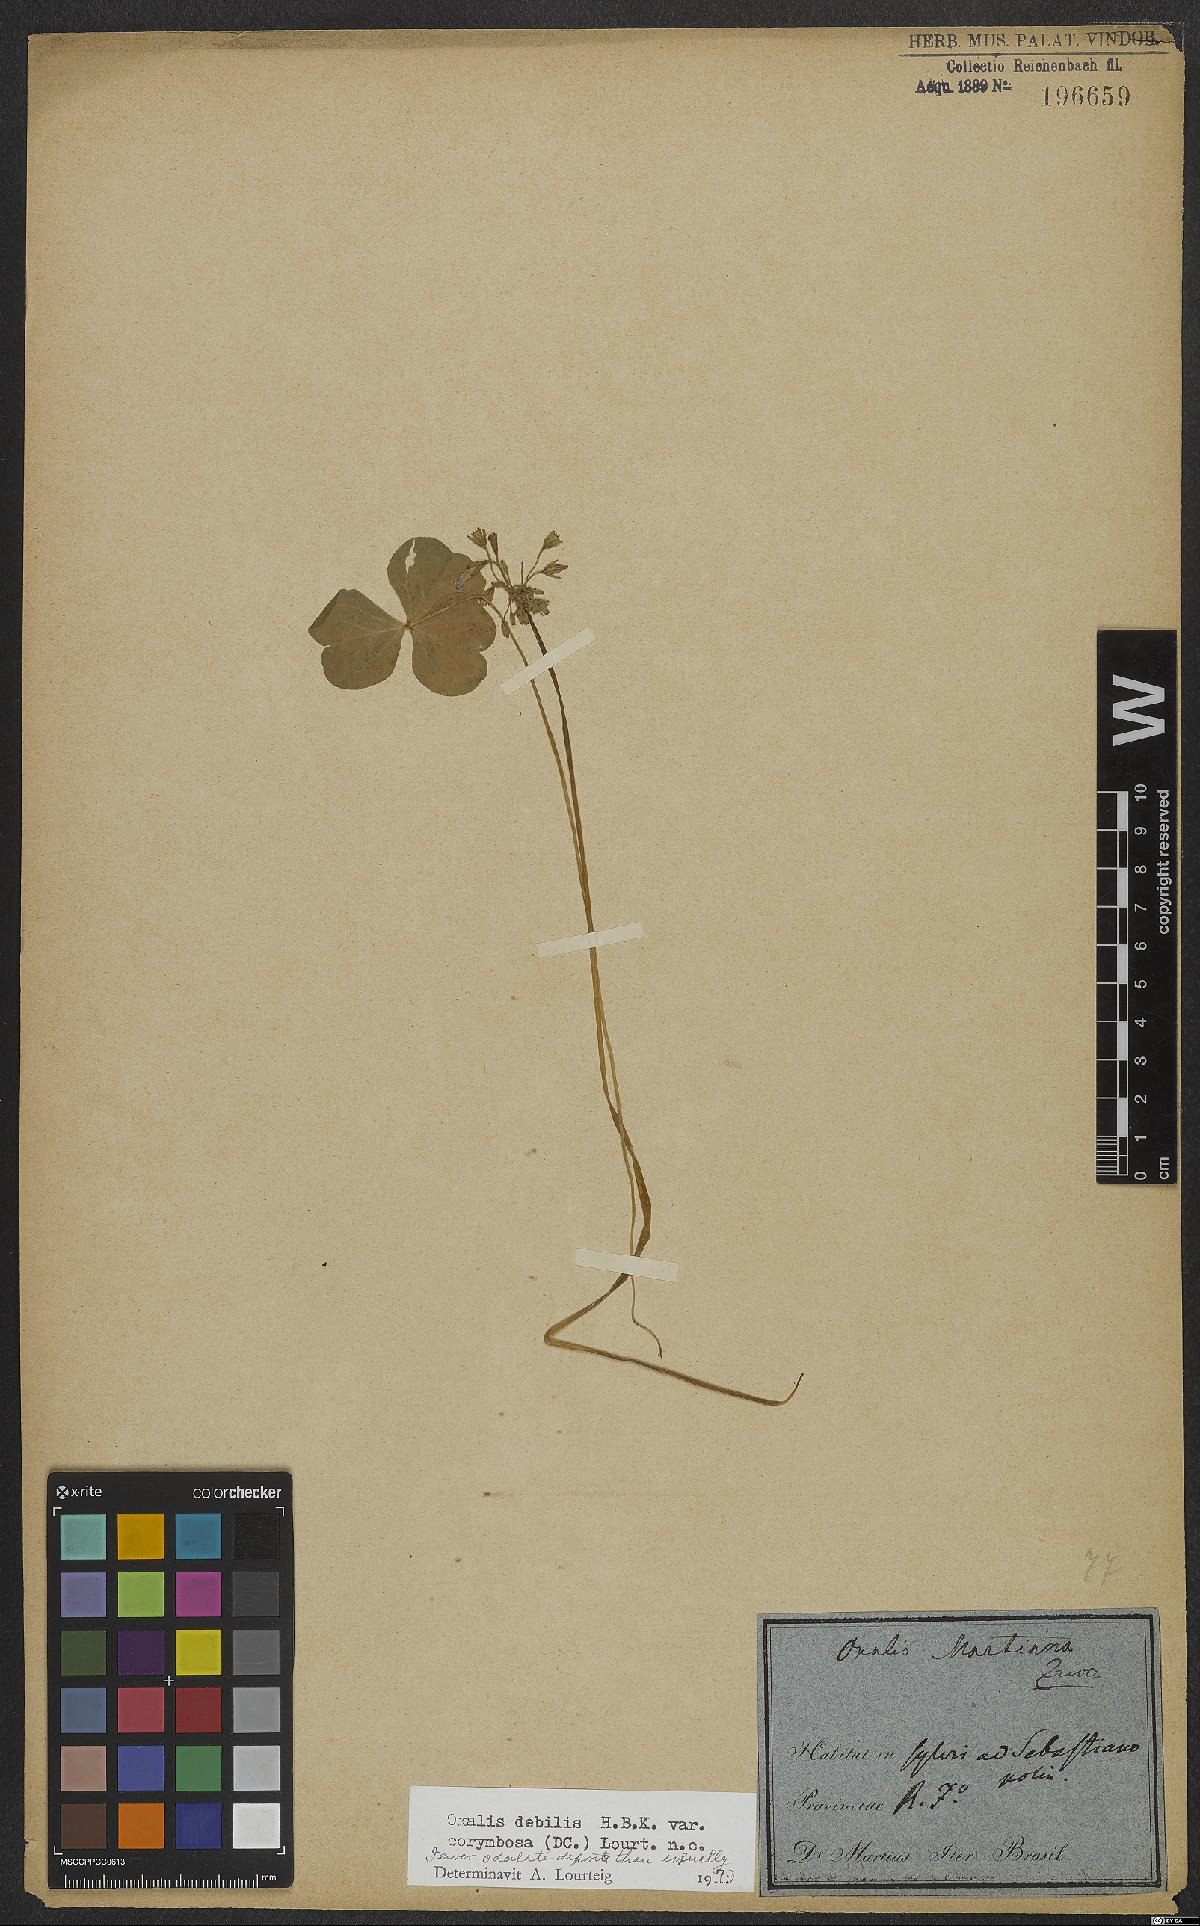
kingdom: Plantae
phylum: Tracheophyta
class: Magnoliopsida
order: Oxalidales
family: Oxalidaceae
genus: Oxalis
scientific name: Oxalis debilis
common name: Large-flowered pink-sorrel
